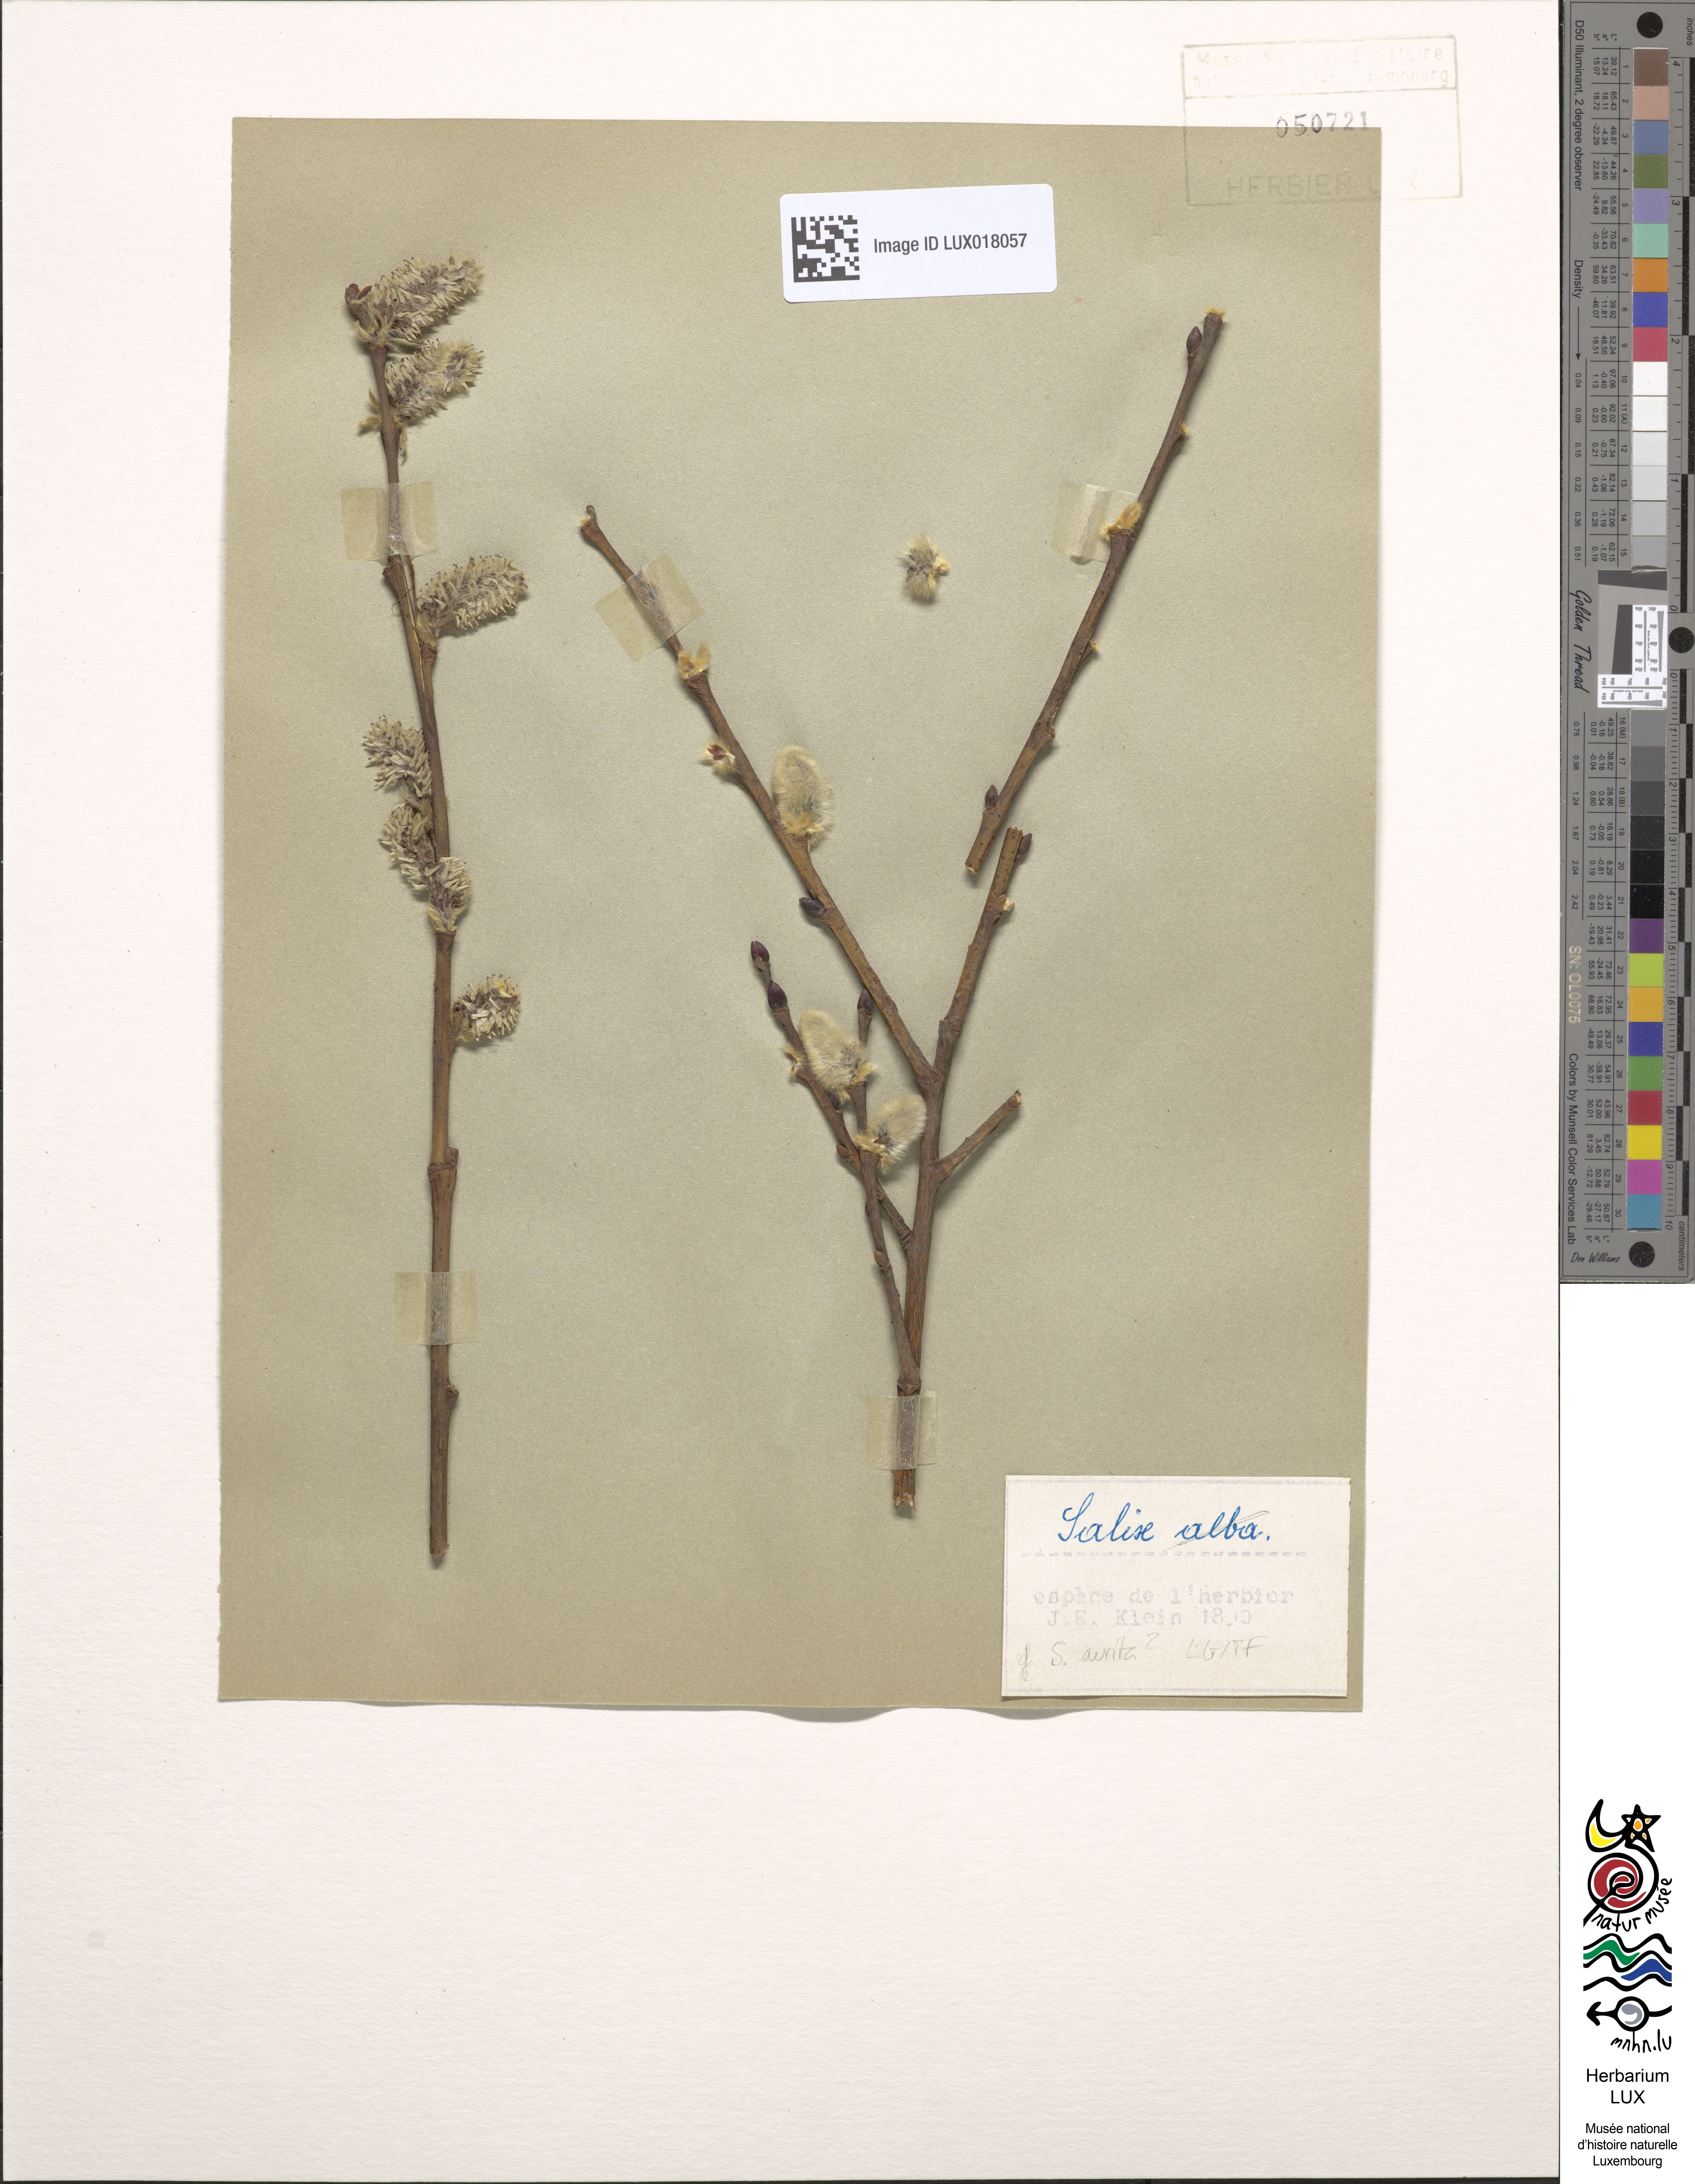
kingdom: Plantae
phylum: Tracheophyta
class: Magnoliopsida
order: Malpighiales
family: Salicaceae
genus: Salix
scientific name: Salix aurita
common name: Eared willow
